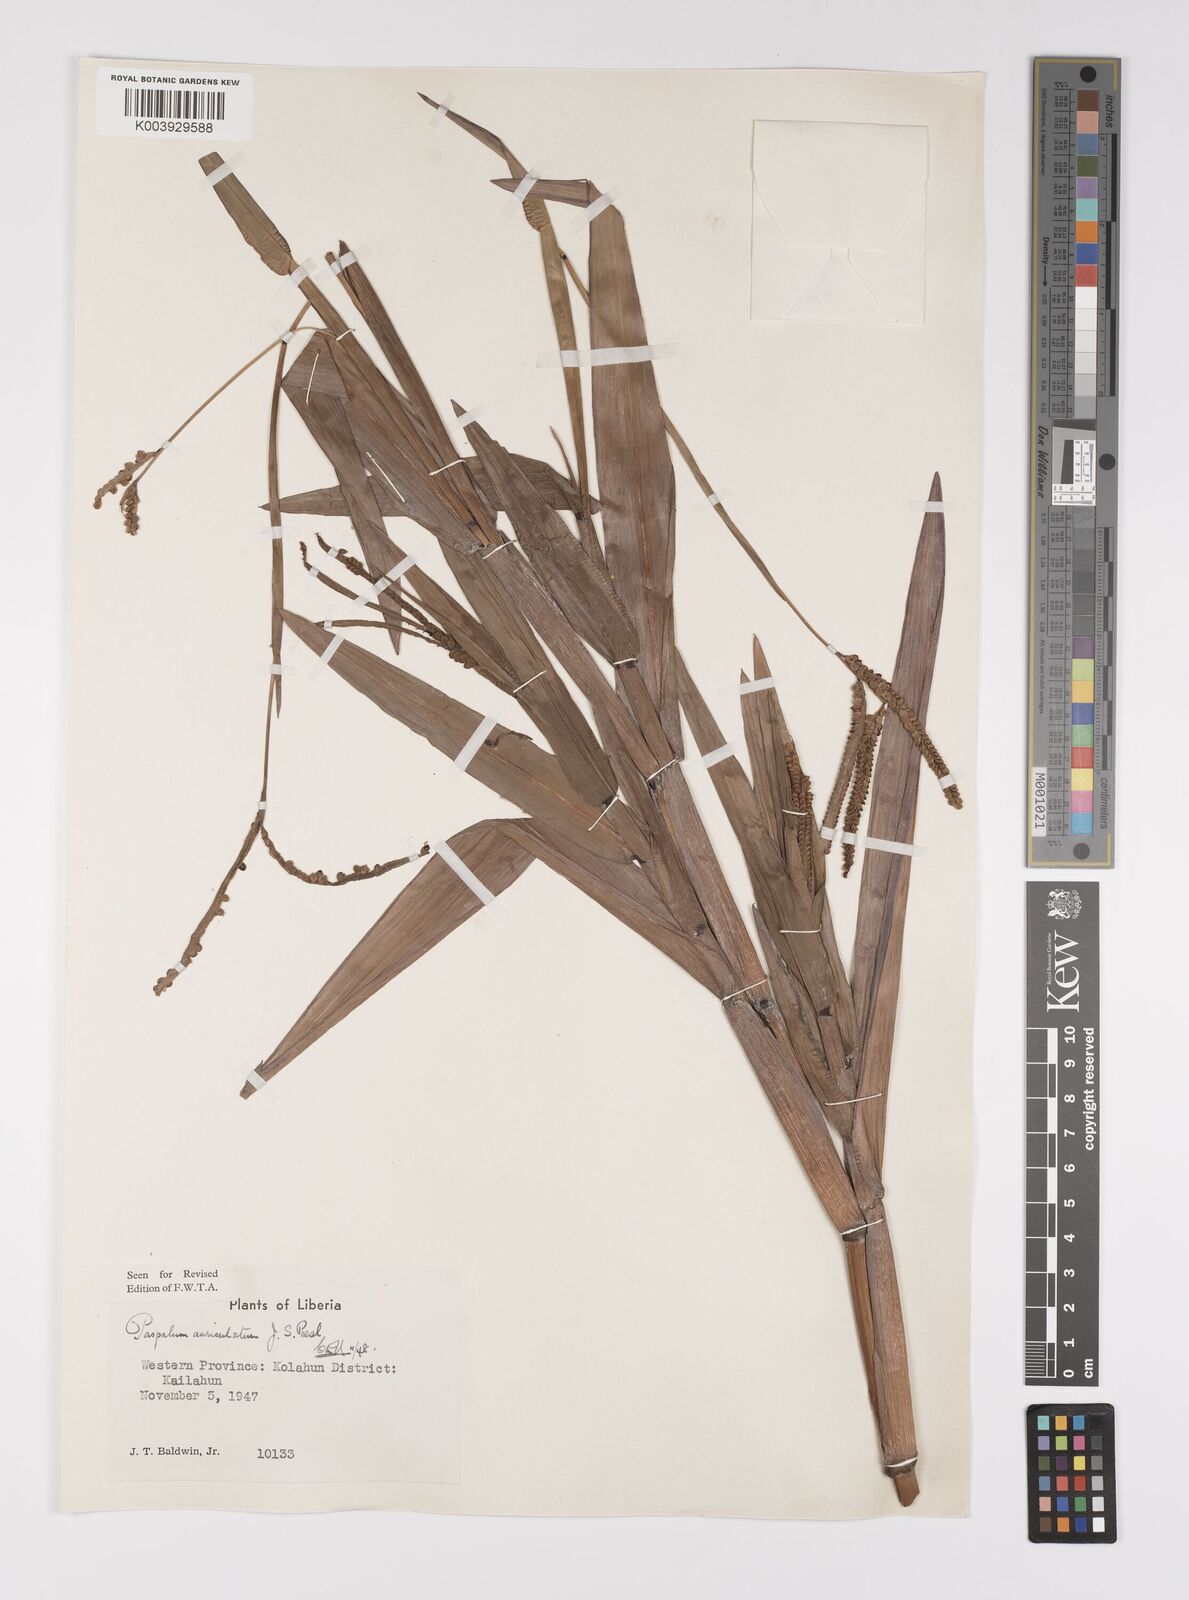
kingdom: Plantae
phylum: Tracheophyta
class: Liliopsida
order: Poales
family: Poaceae
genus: Paspalum
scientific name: Paspalum lamprocaryon
